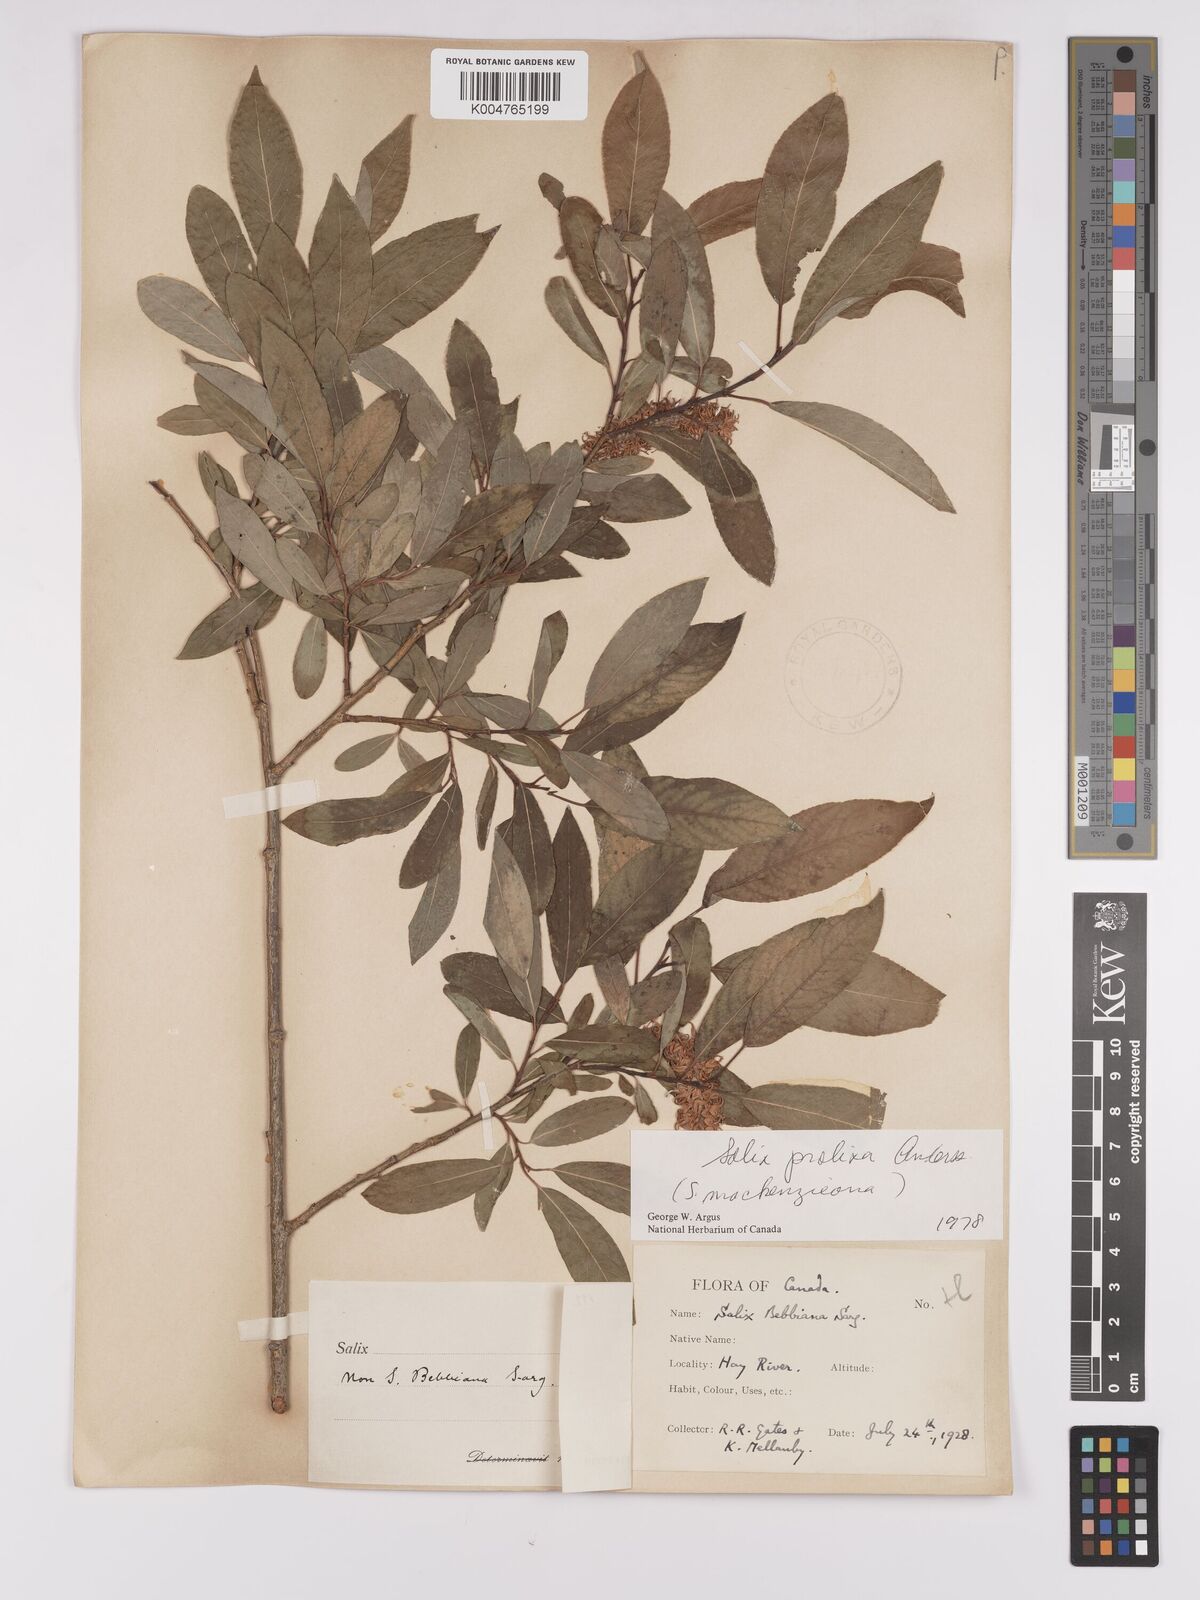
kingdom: Plantae
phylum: Tracheophyta
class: Magnoliopsida
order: Malpighiales
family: Salicaceae
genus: Salix
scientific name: Salix prolixa
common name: Mackenzie's willow
